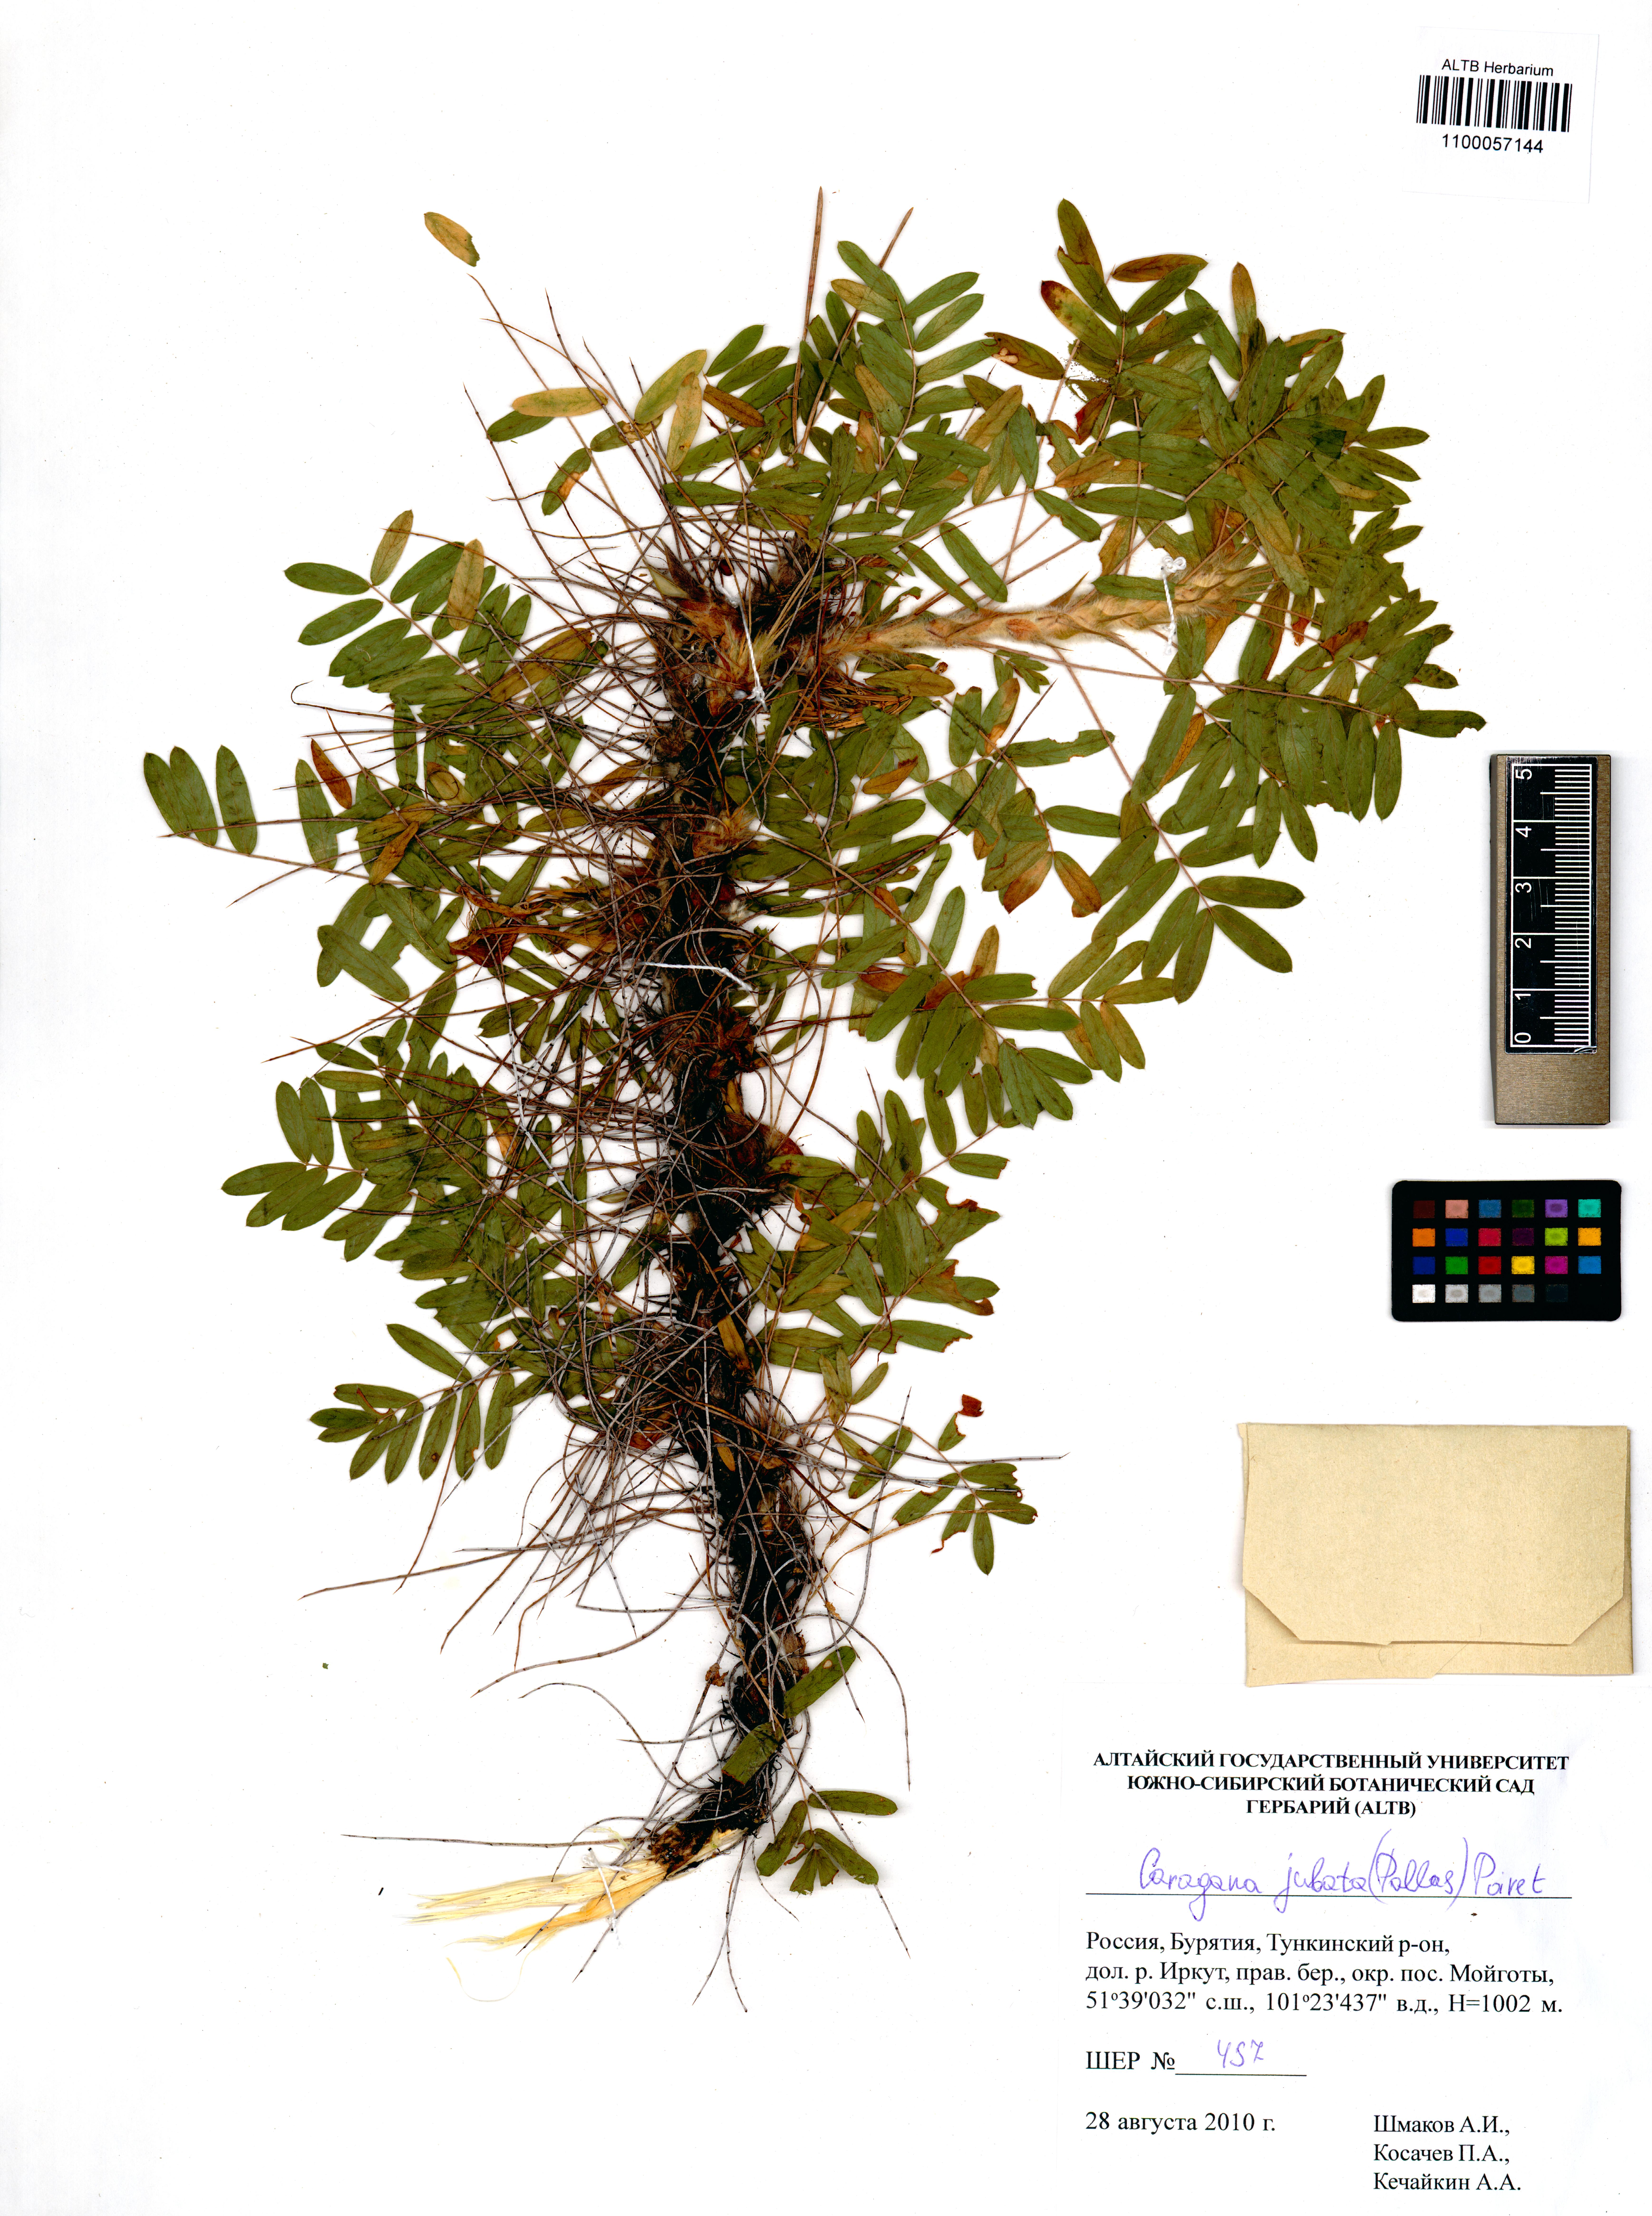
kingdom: Plantae
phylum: Tracheophyta
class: Magnoliopsida
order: Fabales
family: Fabaceae
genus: Caragana
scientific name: Caragana jubata
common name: Shag-spine peashrub
